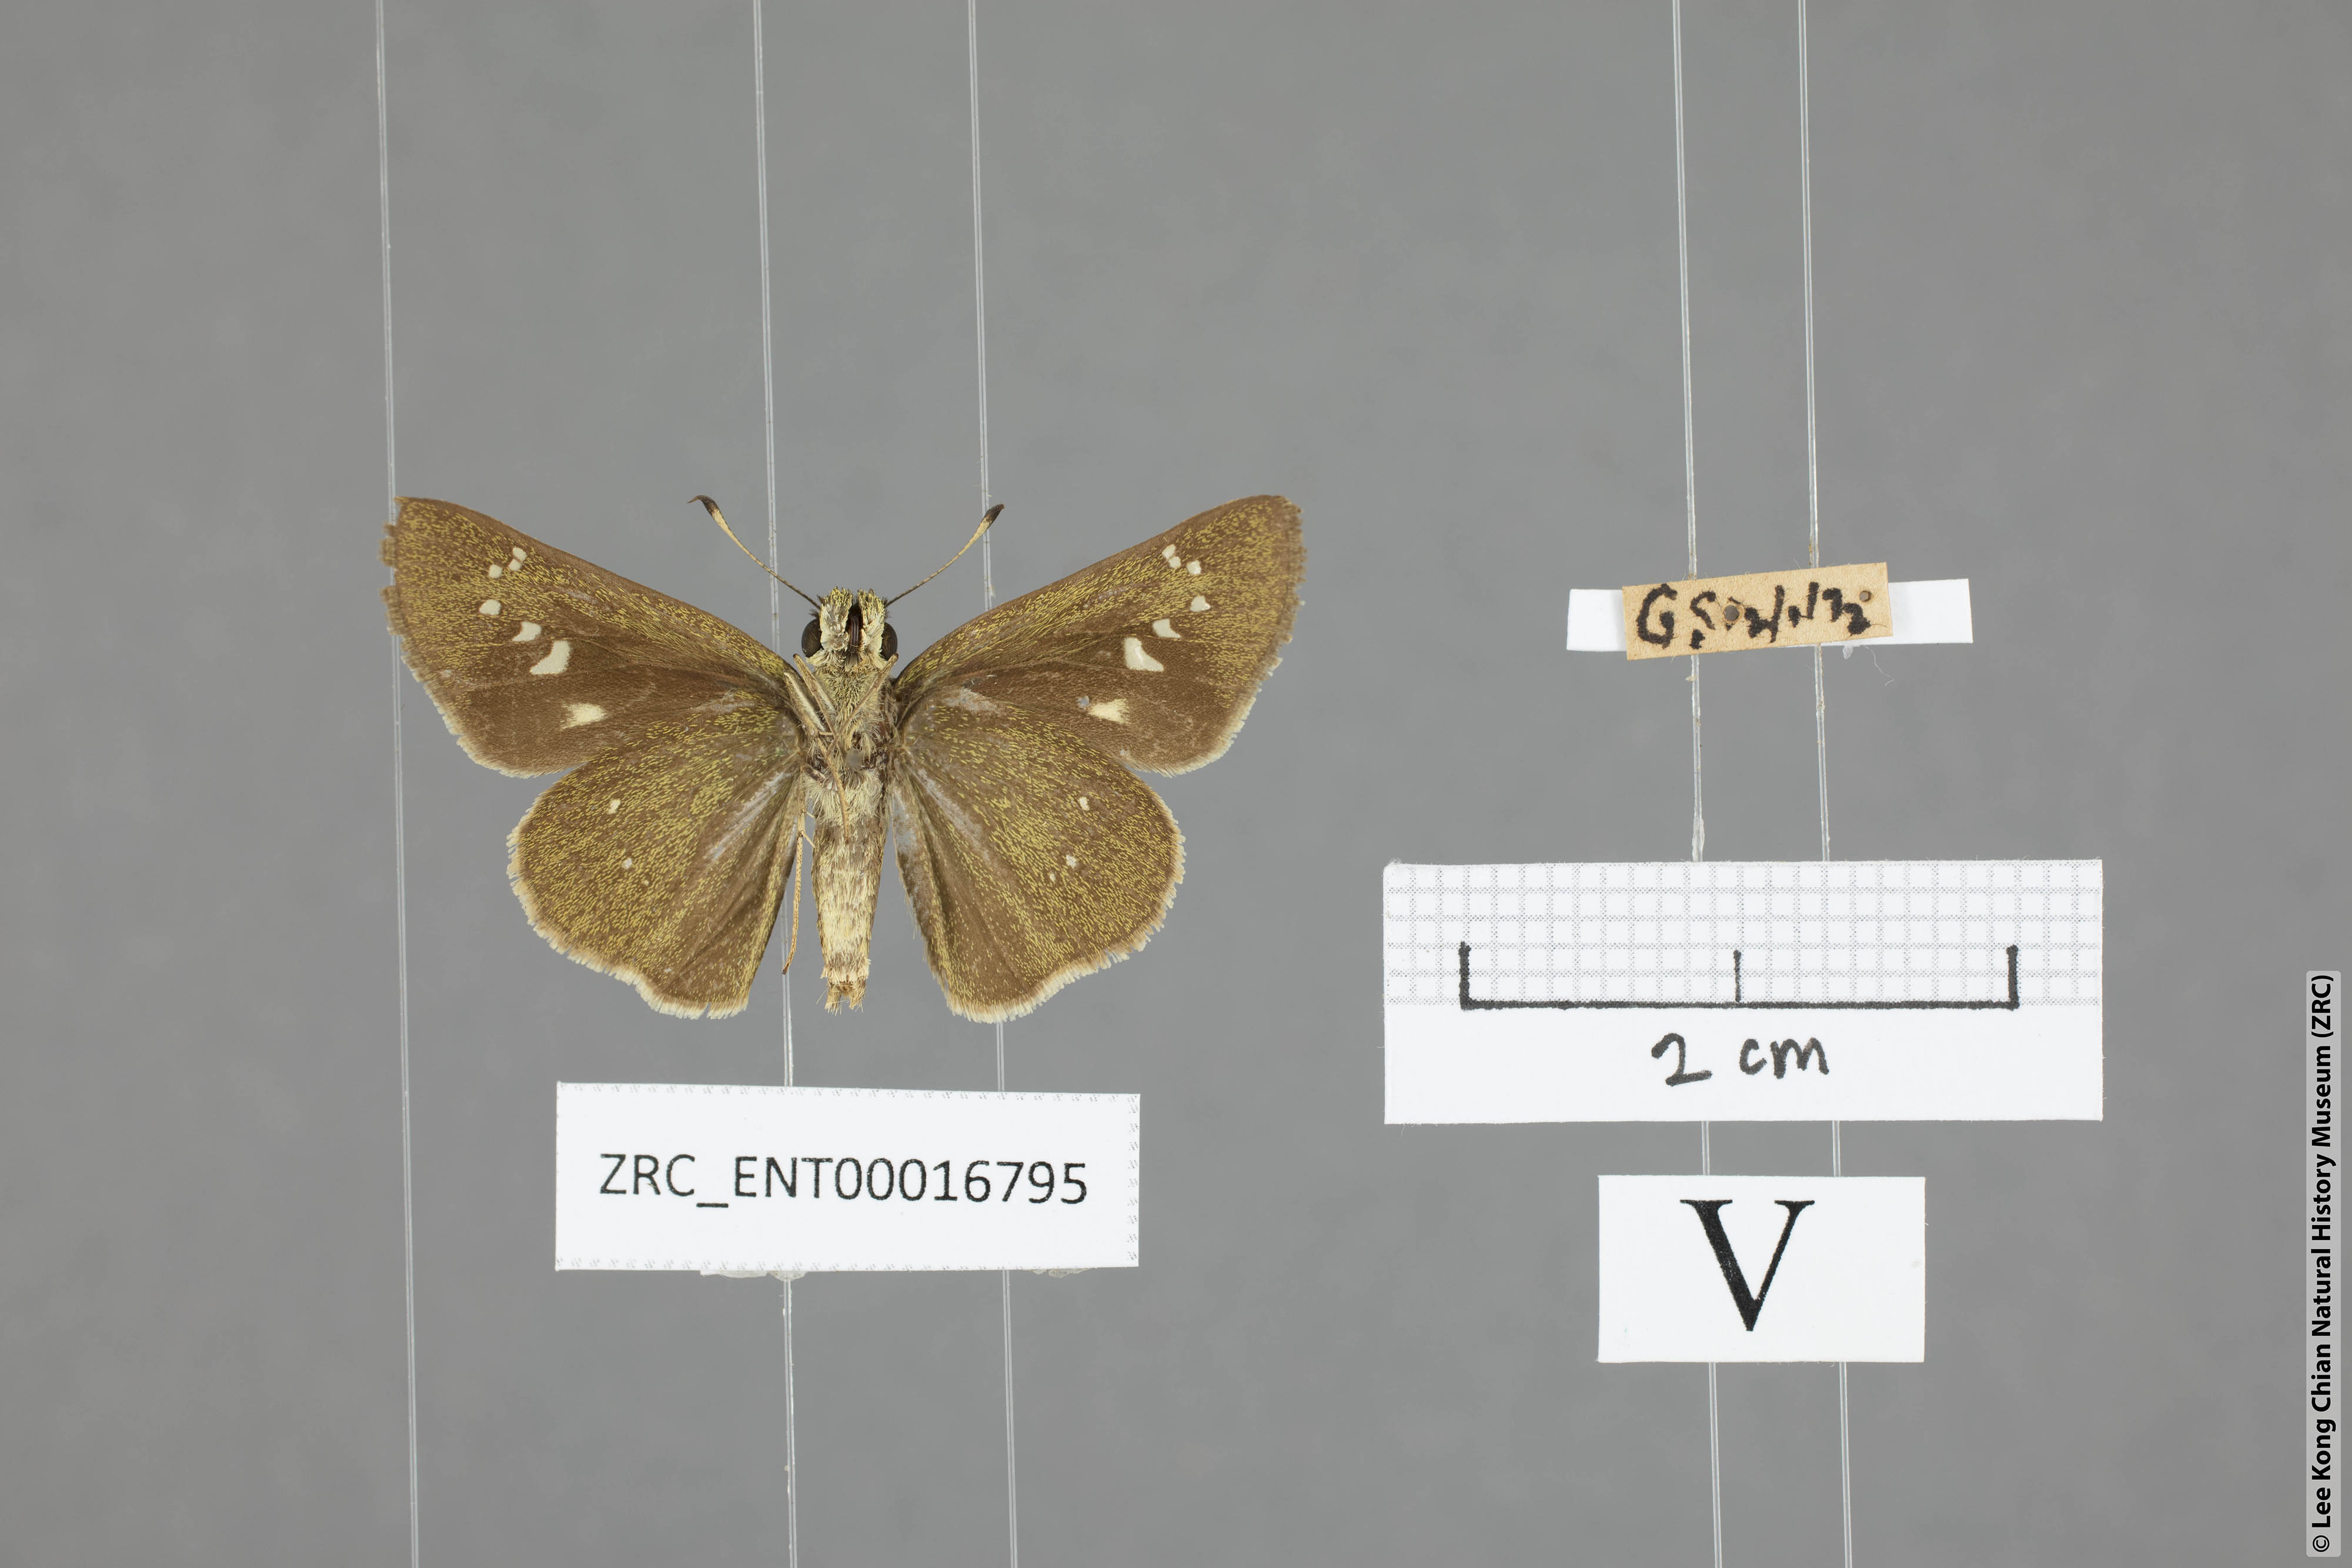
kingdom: Animalia
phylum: Arthropoda
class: Insecta
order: Lepidoptera
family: Hesperiidae
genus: Borbo
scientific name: Borbo cinnara
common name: Formosan swift
